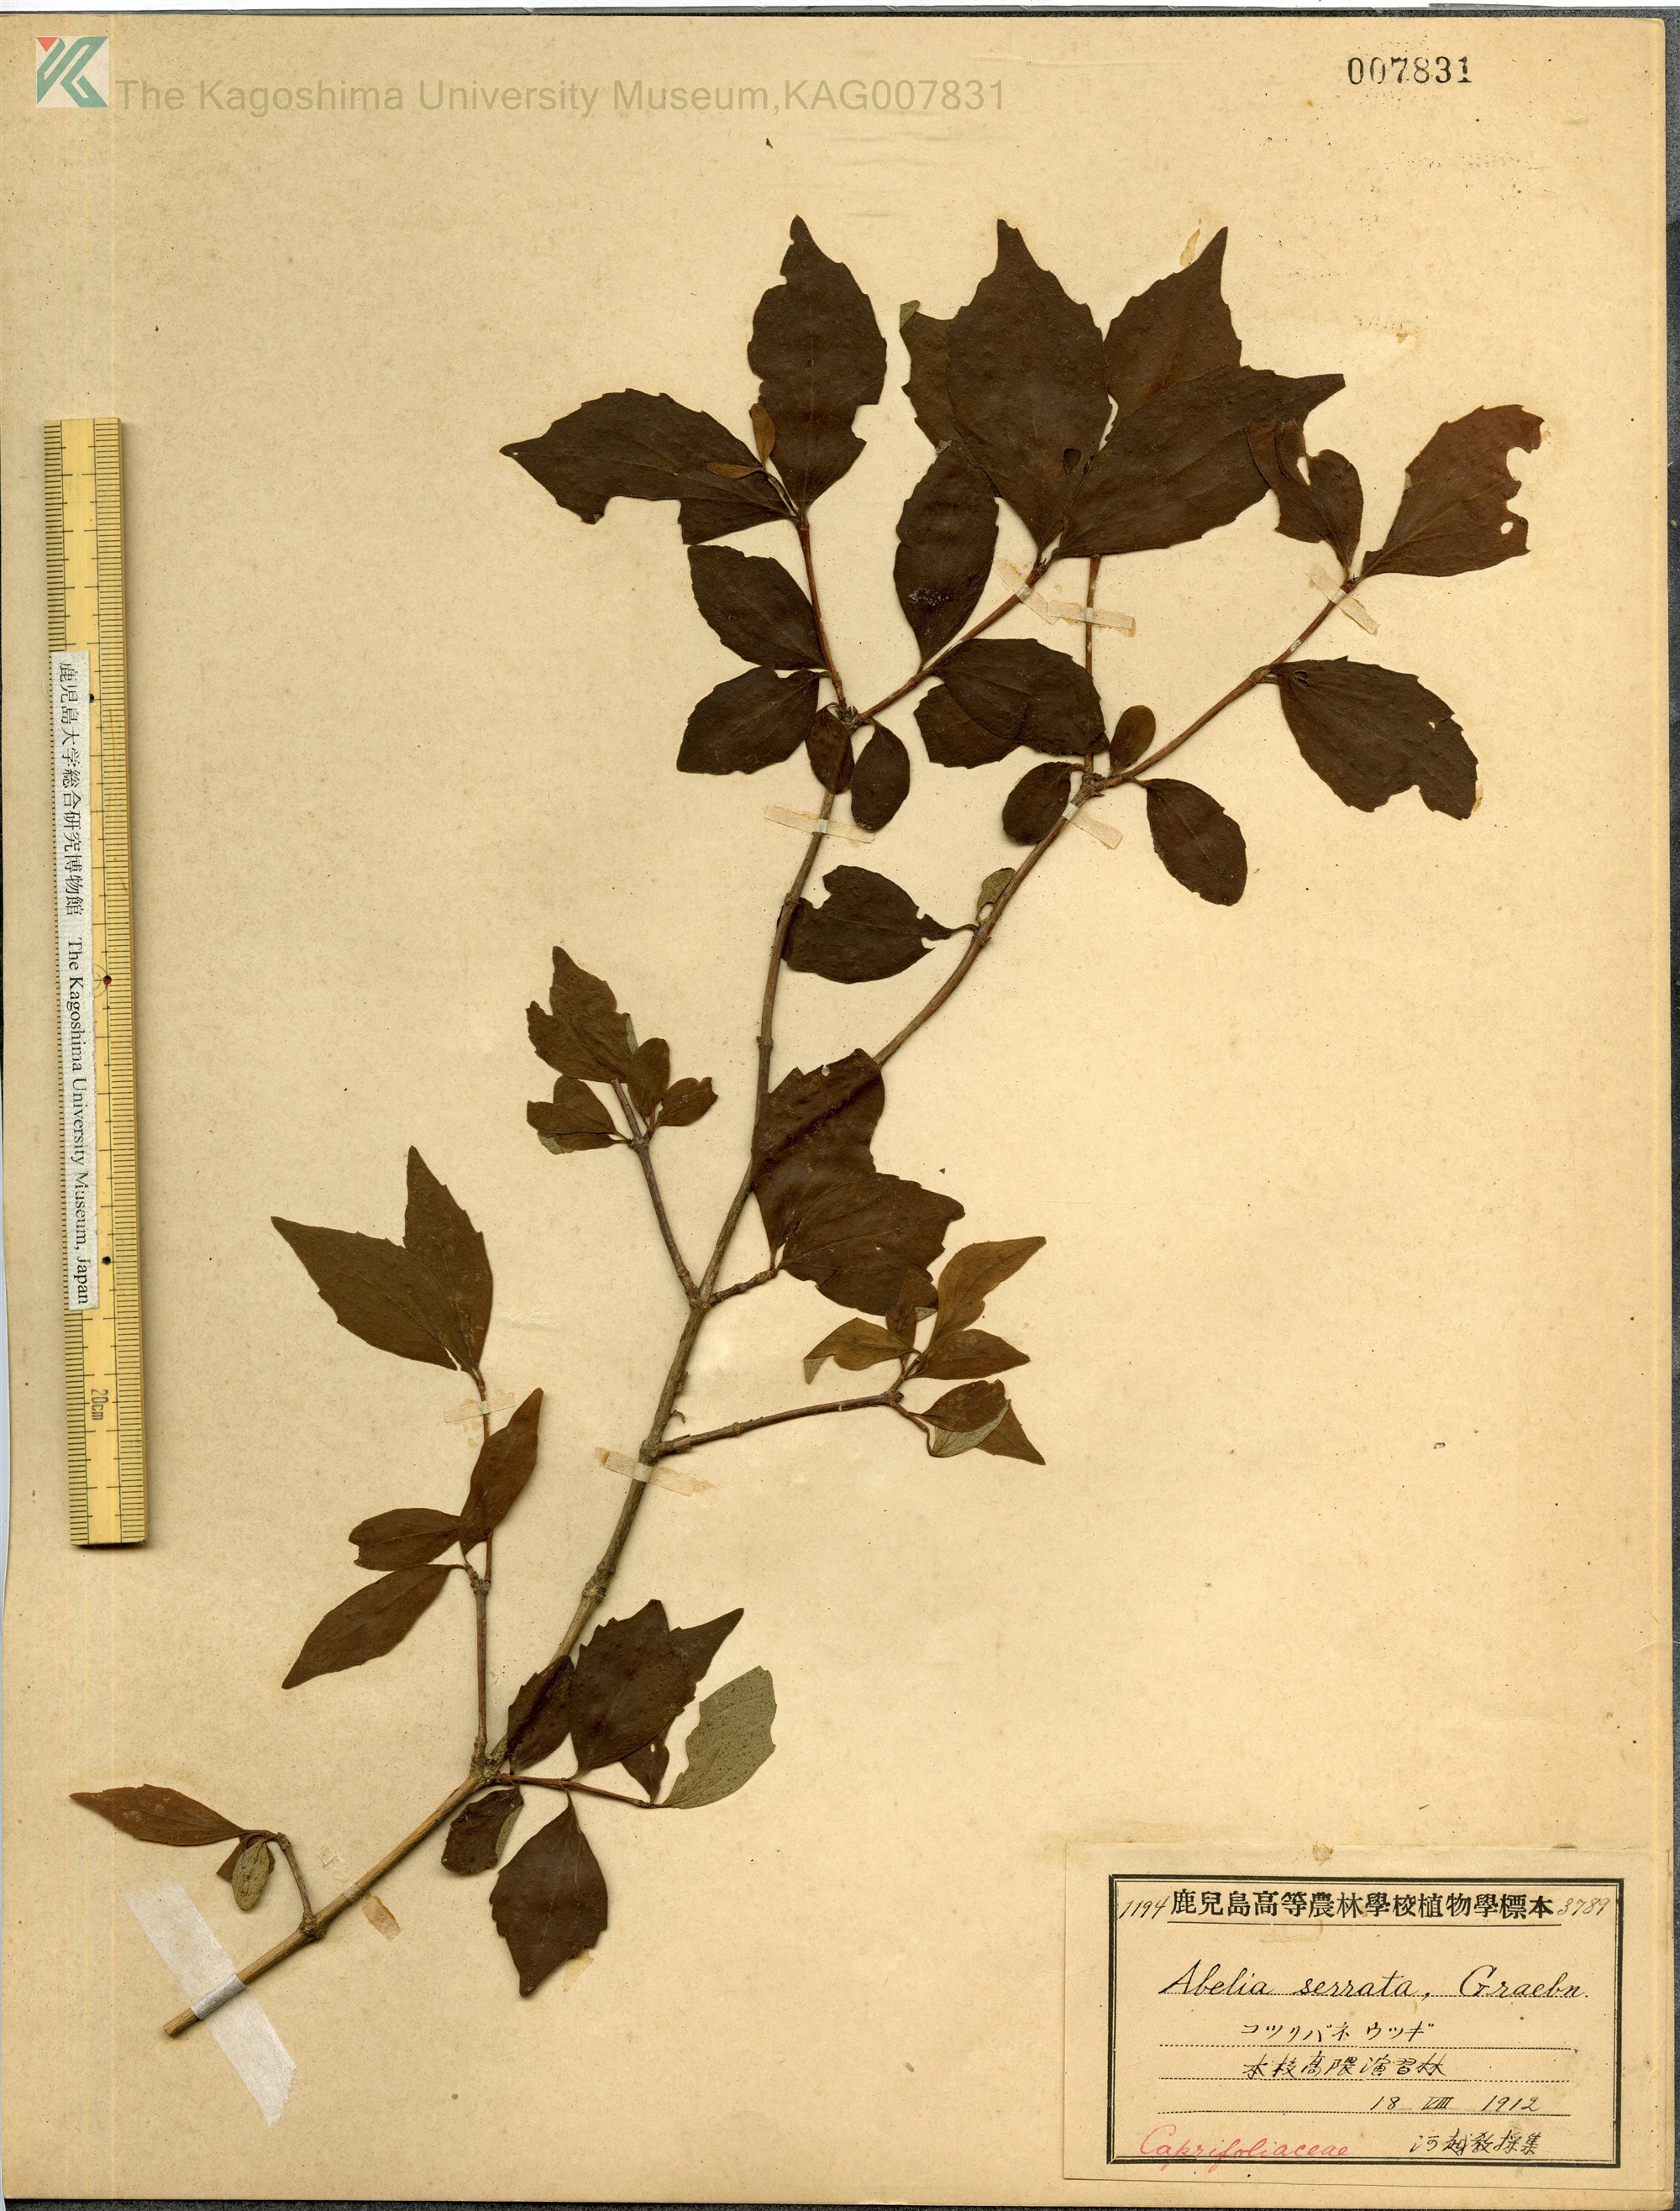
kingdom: Plantae
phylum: Tracheophyta
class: Magnoliopsida
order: Dipsacales
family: Caprifoliaceae
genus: Diabelia
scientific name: Diabelia serrata
